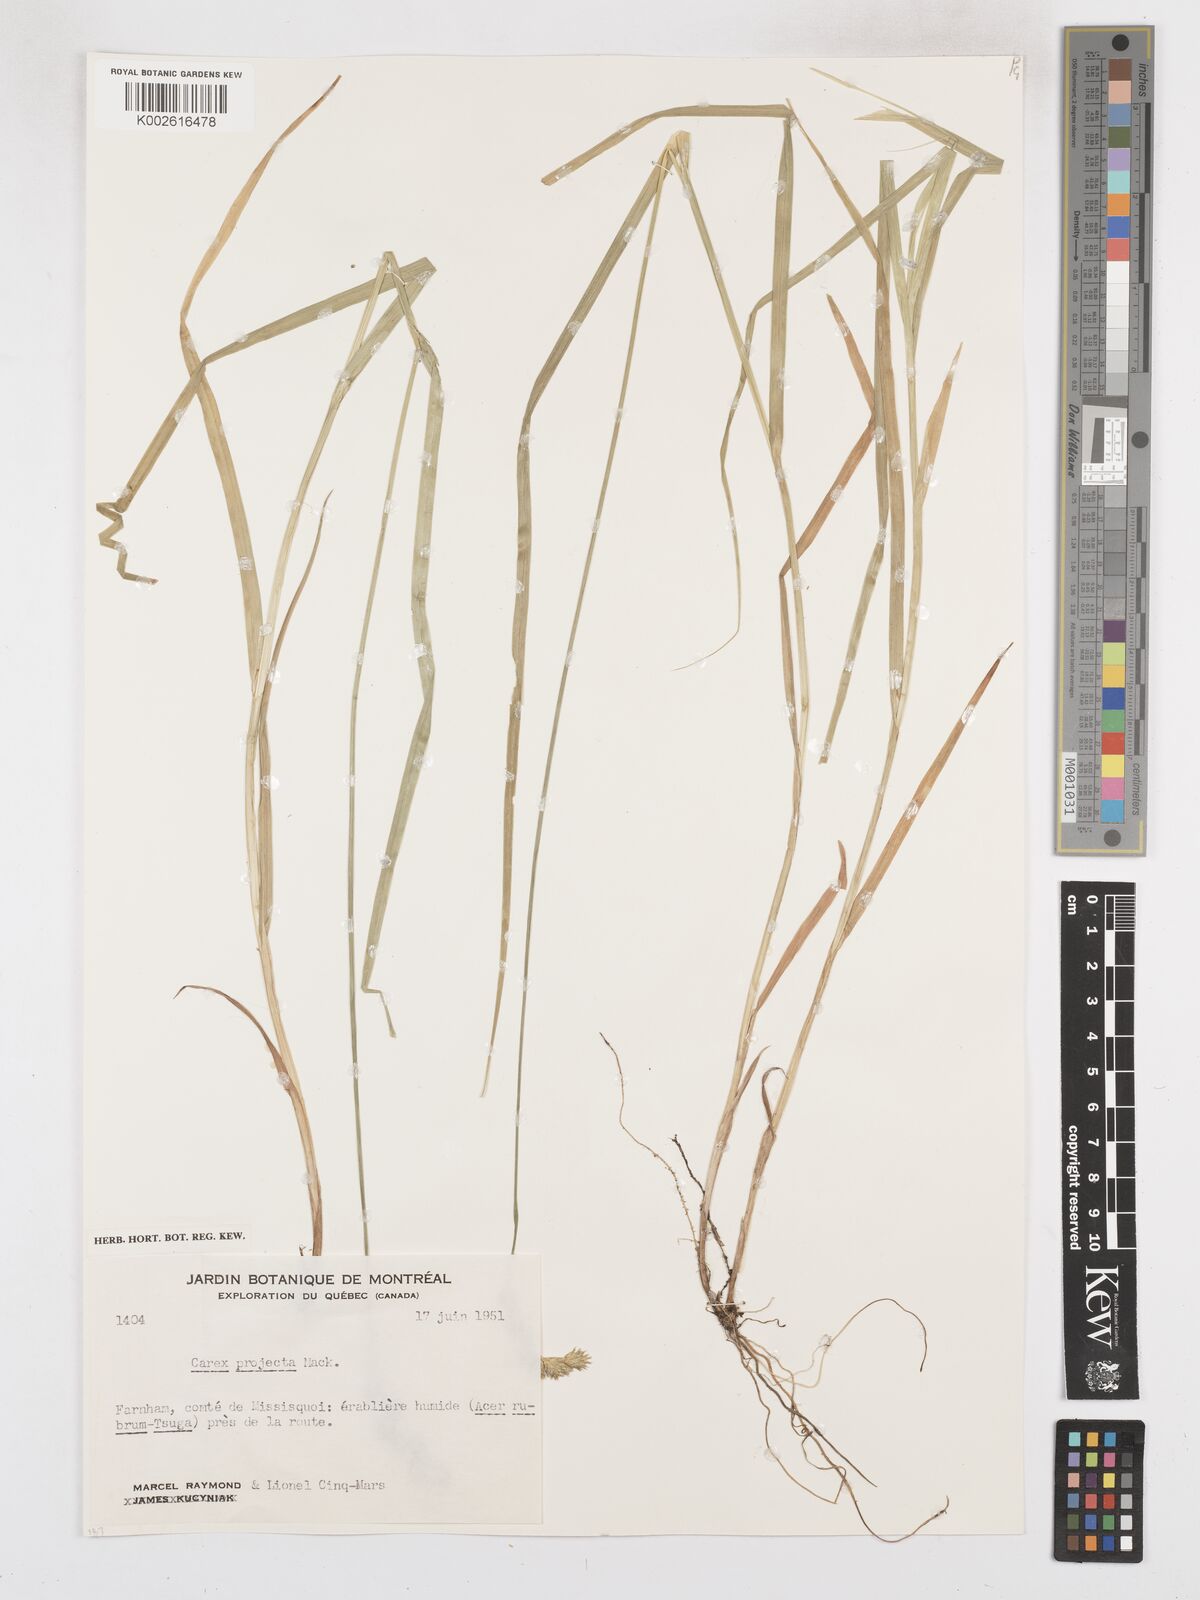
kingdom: Plantae
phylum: Tracheophyta
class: Liliopsida
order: Poales
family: Cyperaceae
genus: Carex
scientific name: Carex projecta
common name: Loose-headed oval sedge
